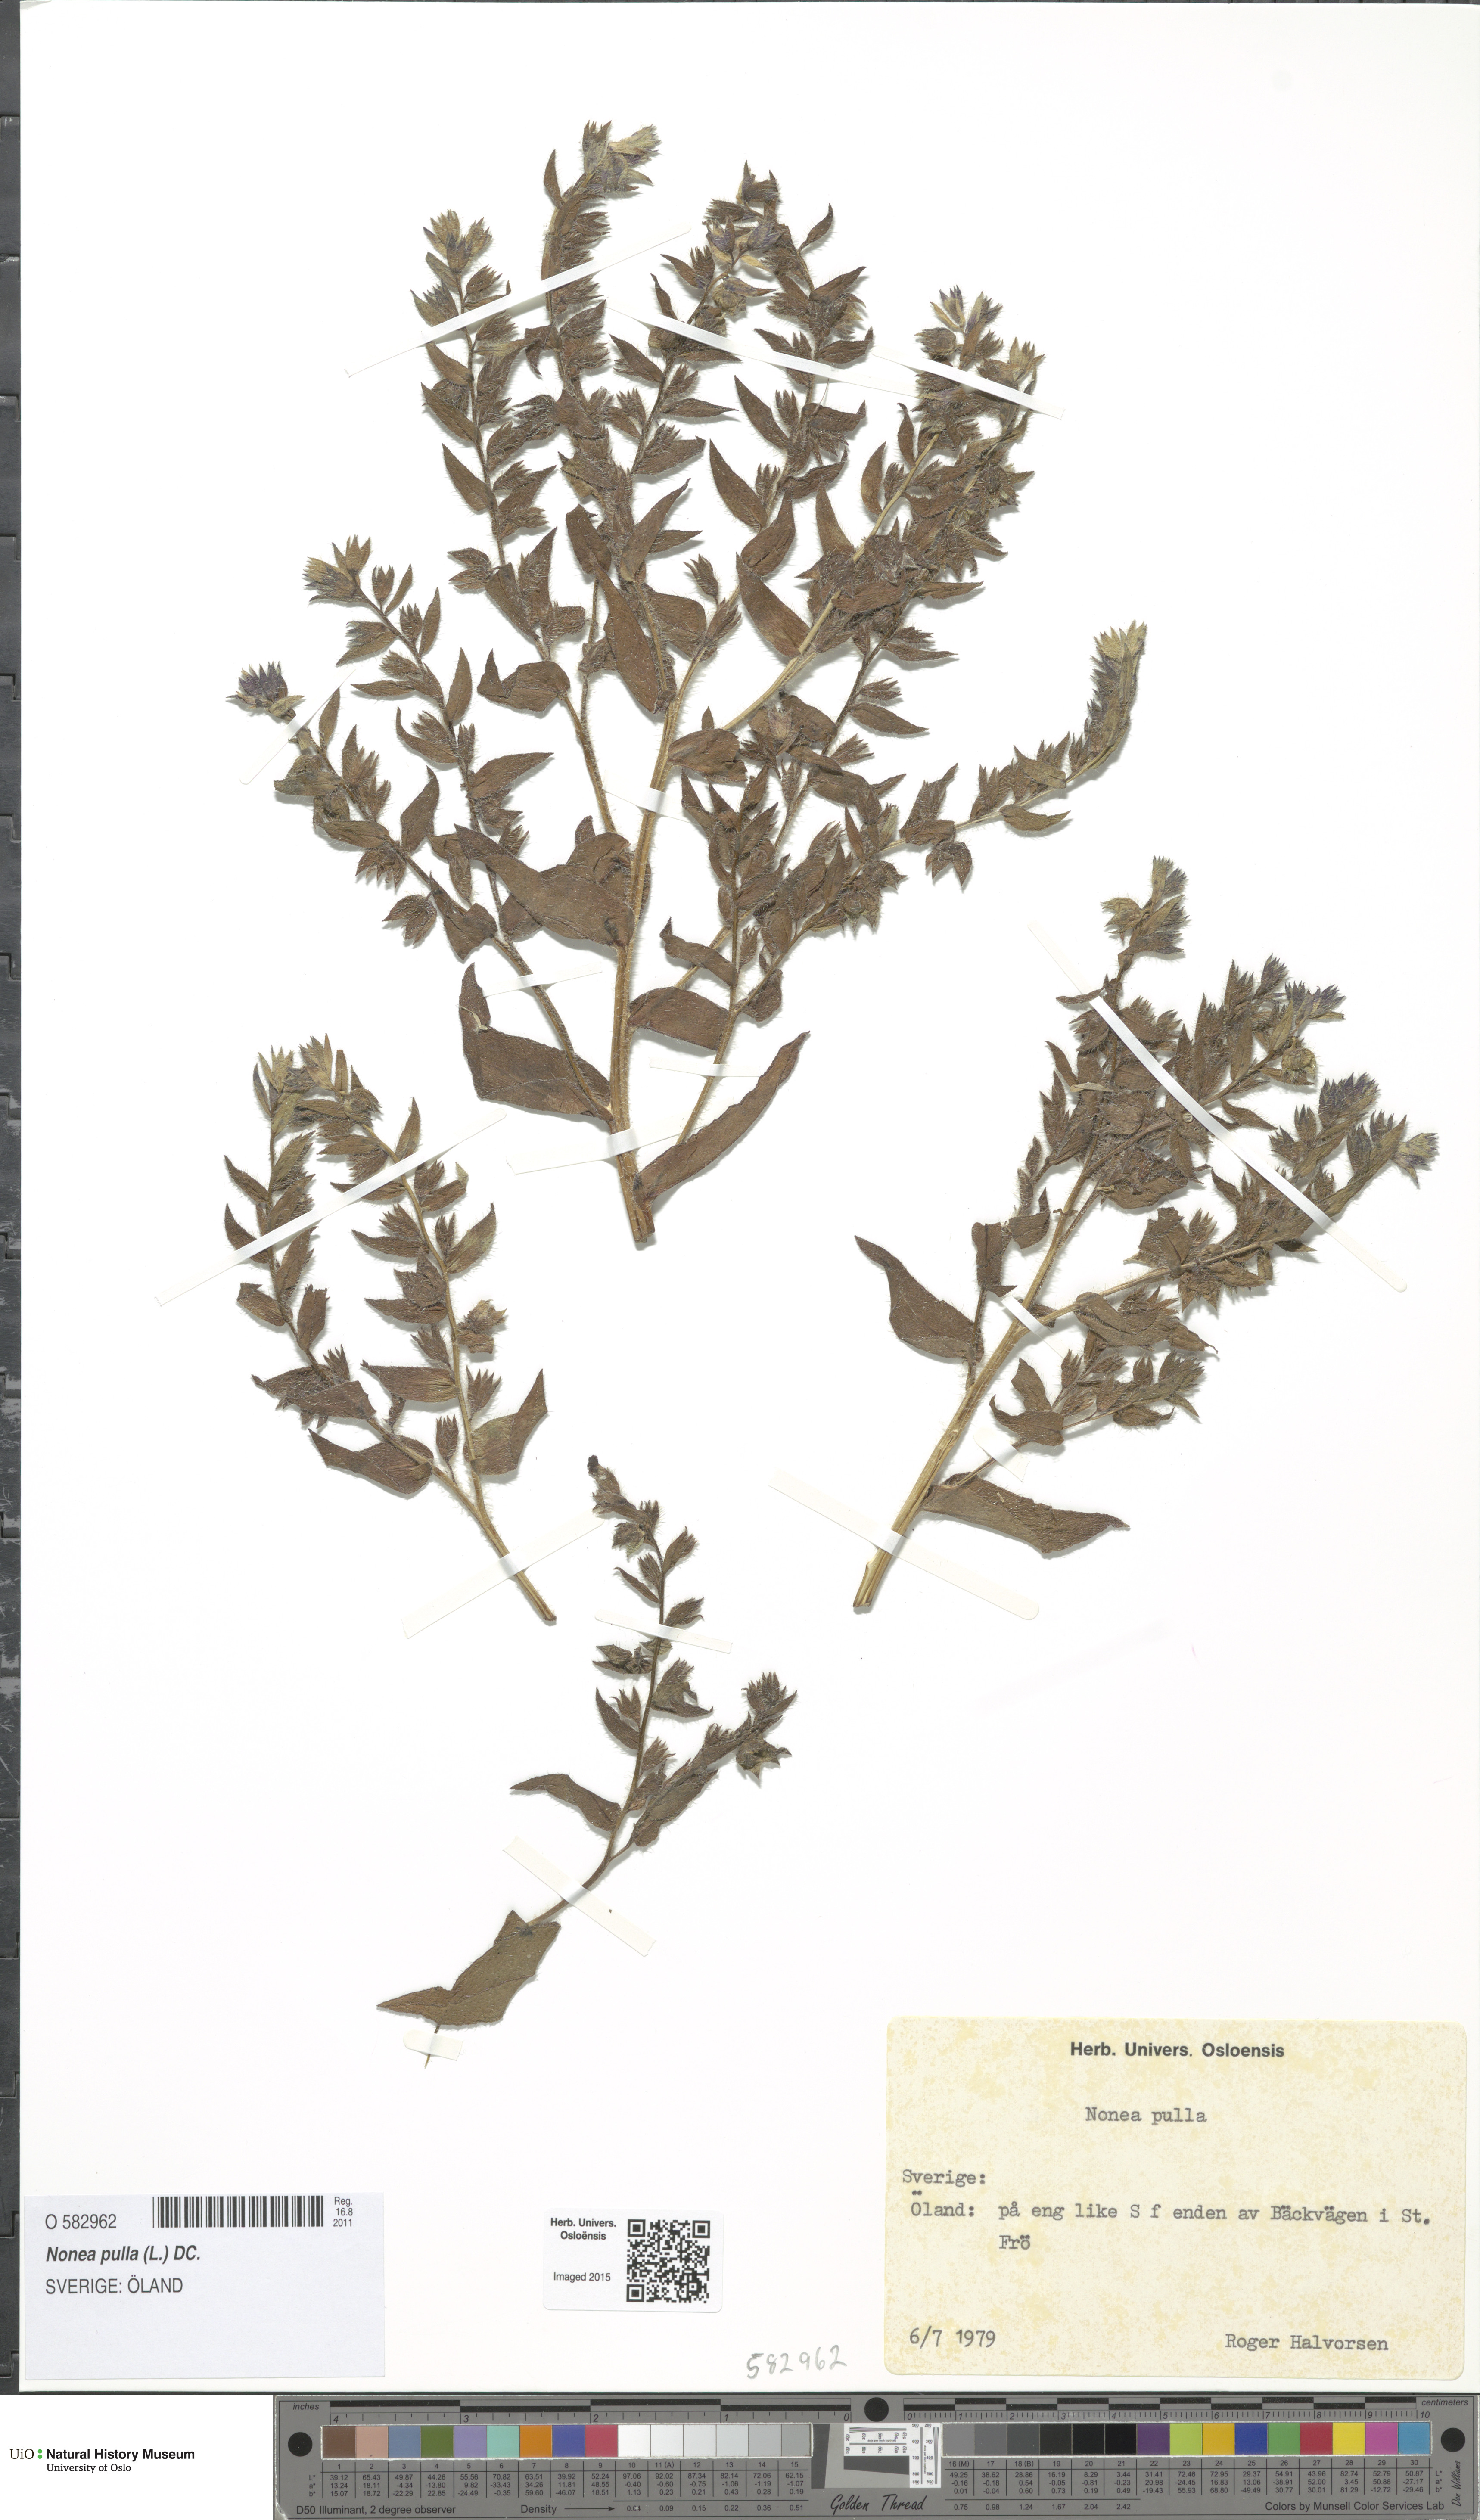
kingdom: Plantae
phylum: Tracheophyta
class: Magnoliopsida
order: Boraginales
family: Boraginaceae
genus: Nonea
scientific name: Nonea pulla
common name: Brown nonea
